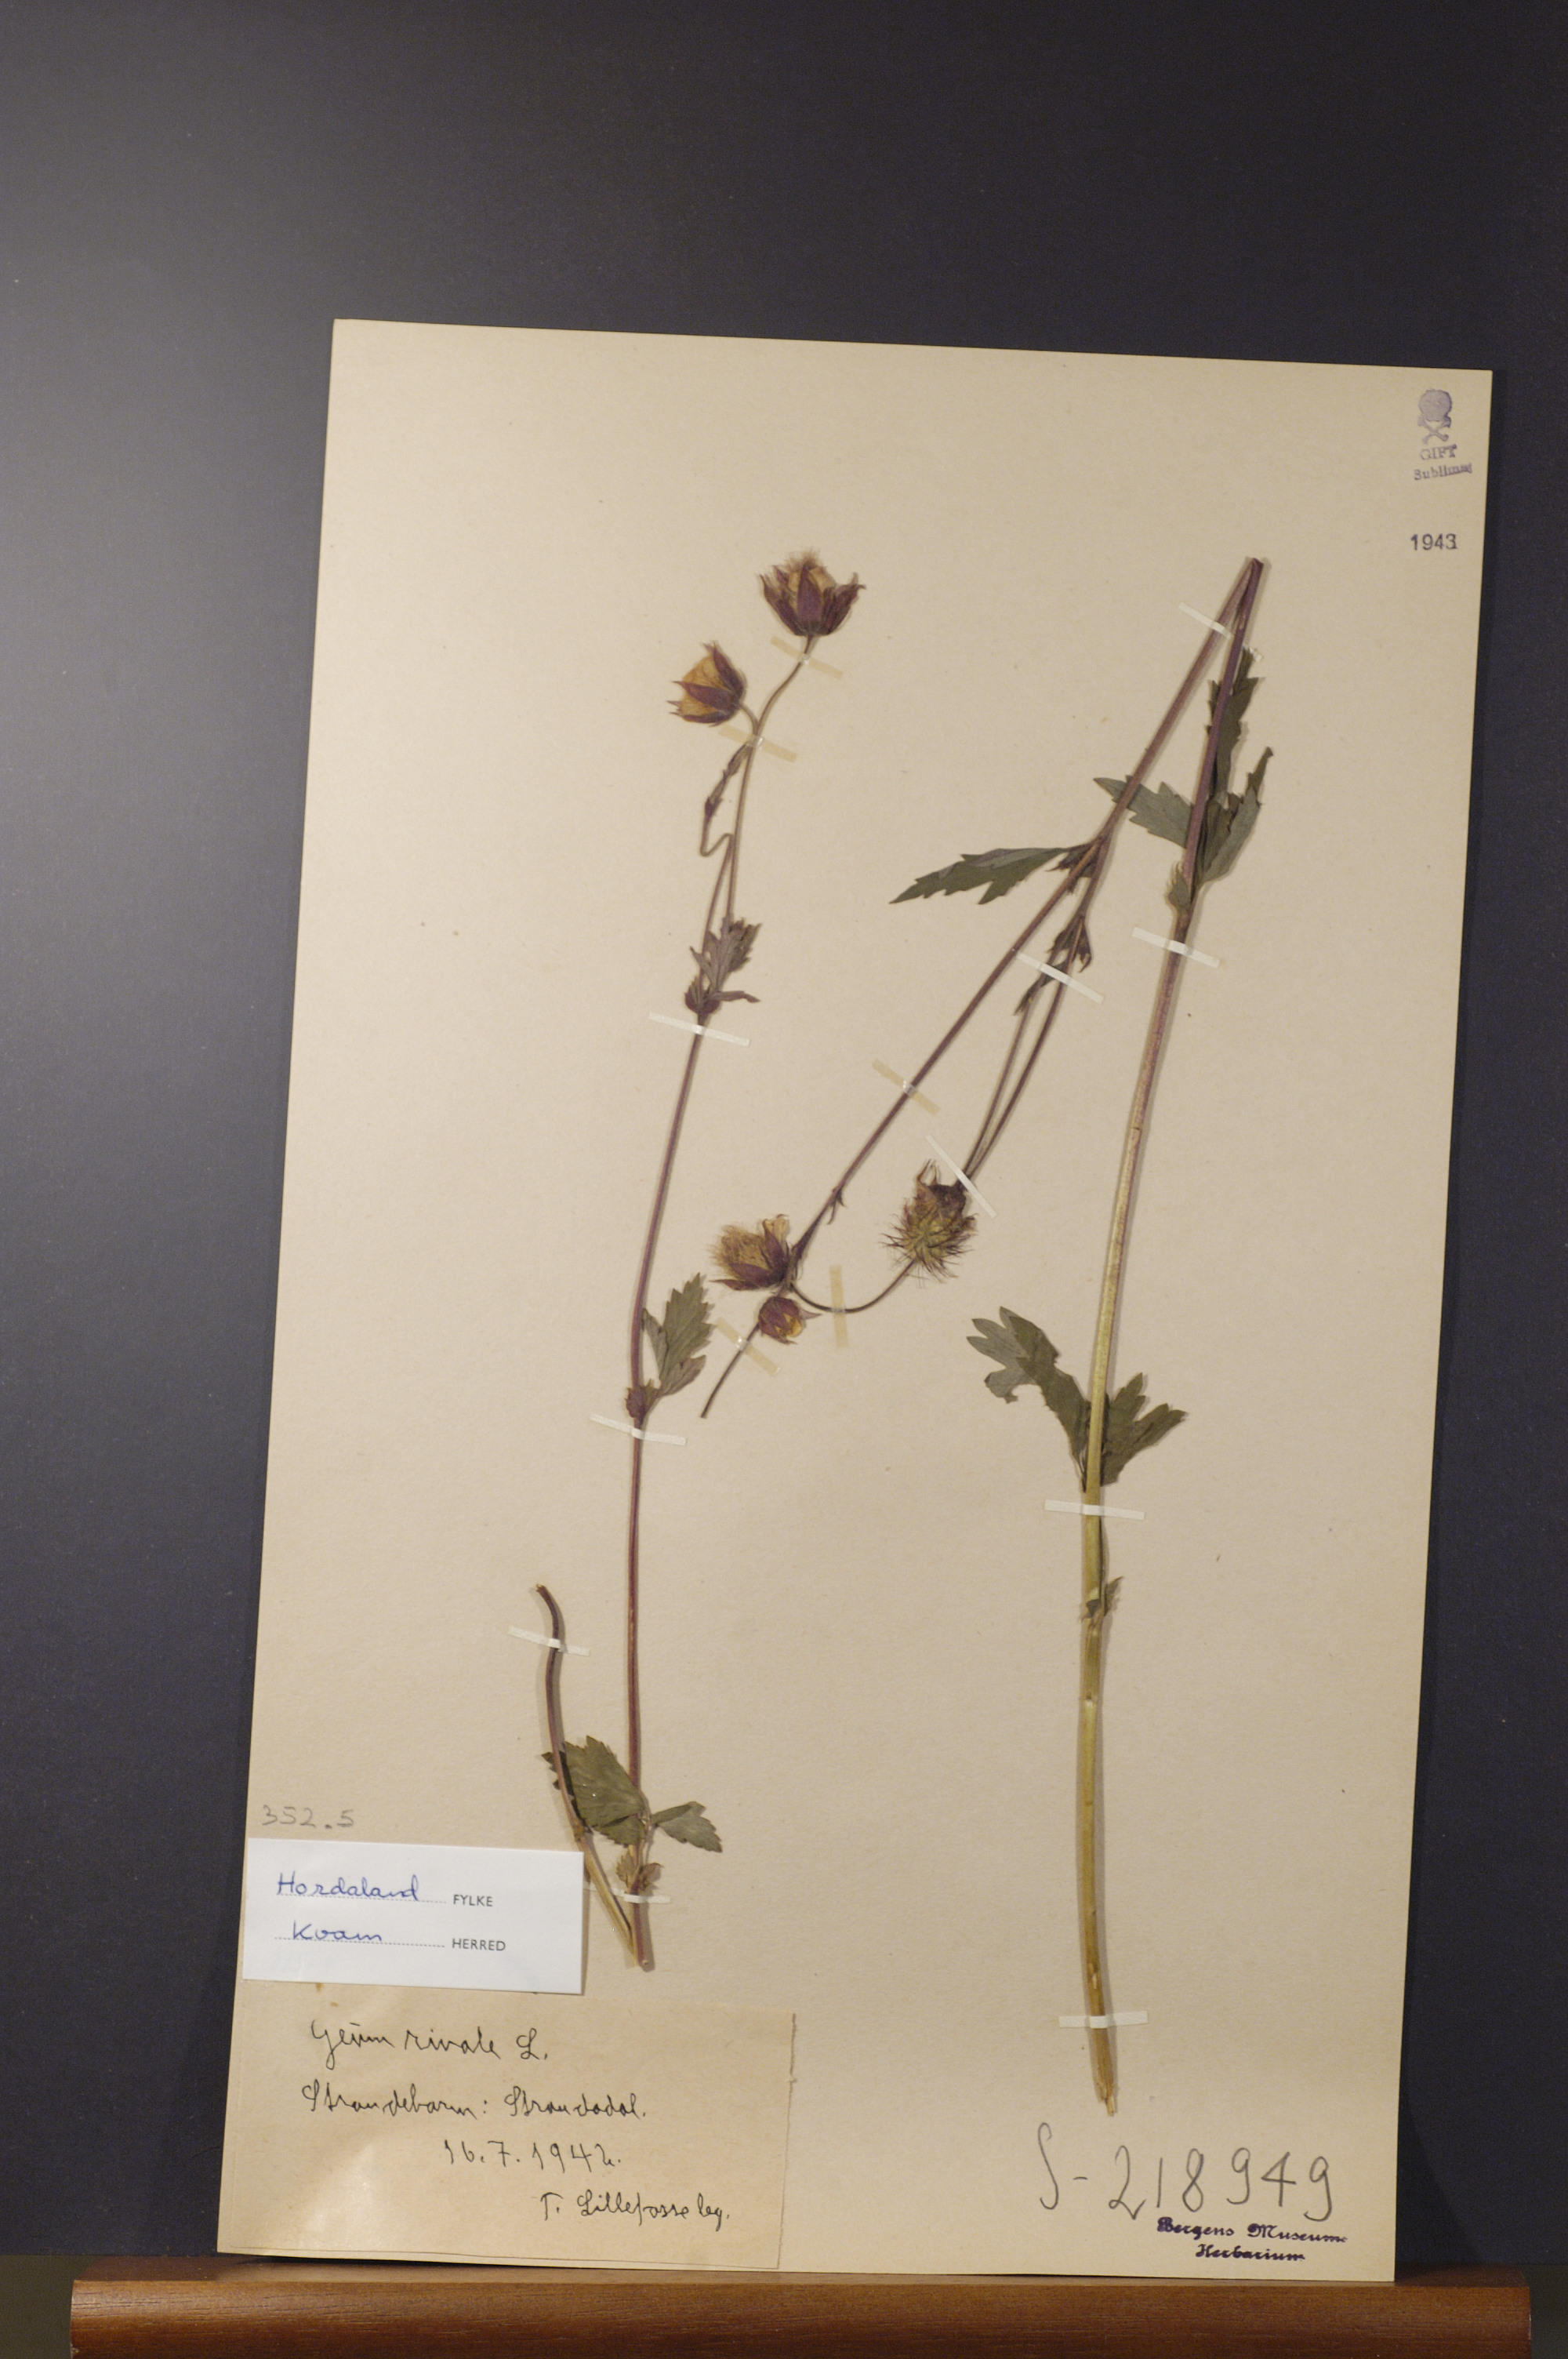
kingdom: Plantae
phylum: Tracheophyta
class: Magnoliopsida
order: Rosales
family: Rosaceae
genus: Geum
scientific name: Geum rivale
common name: Water avens
